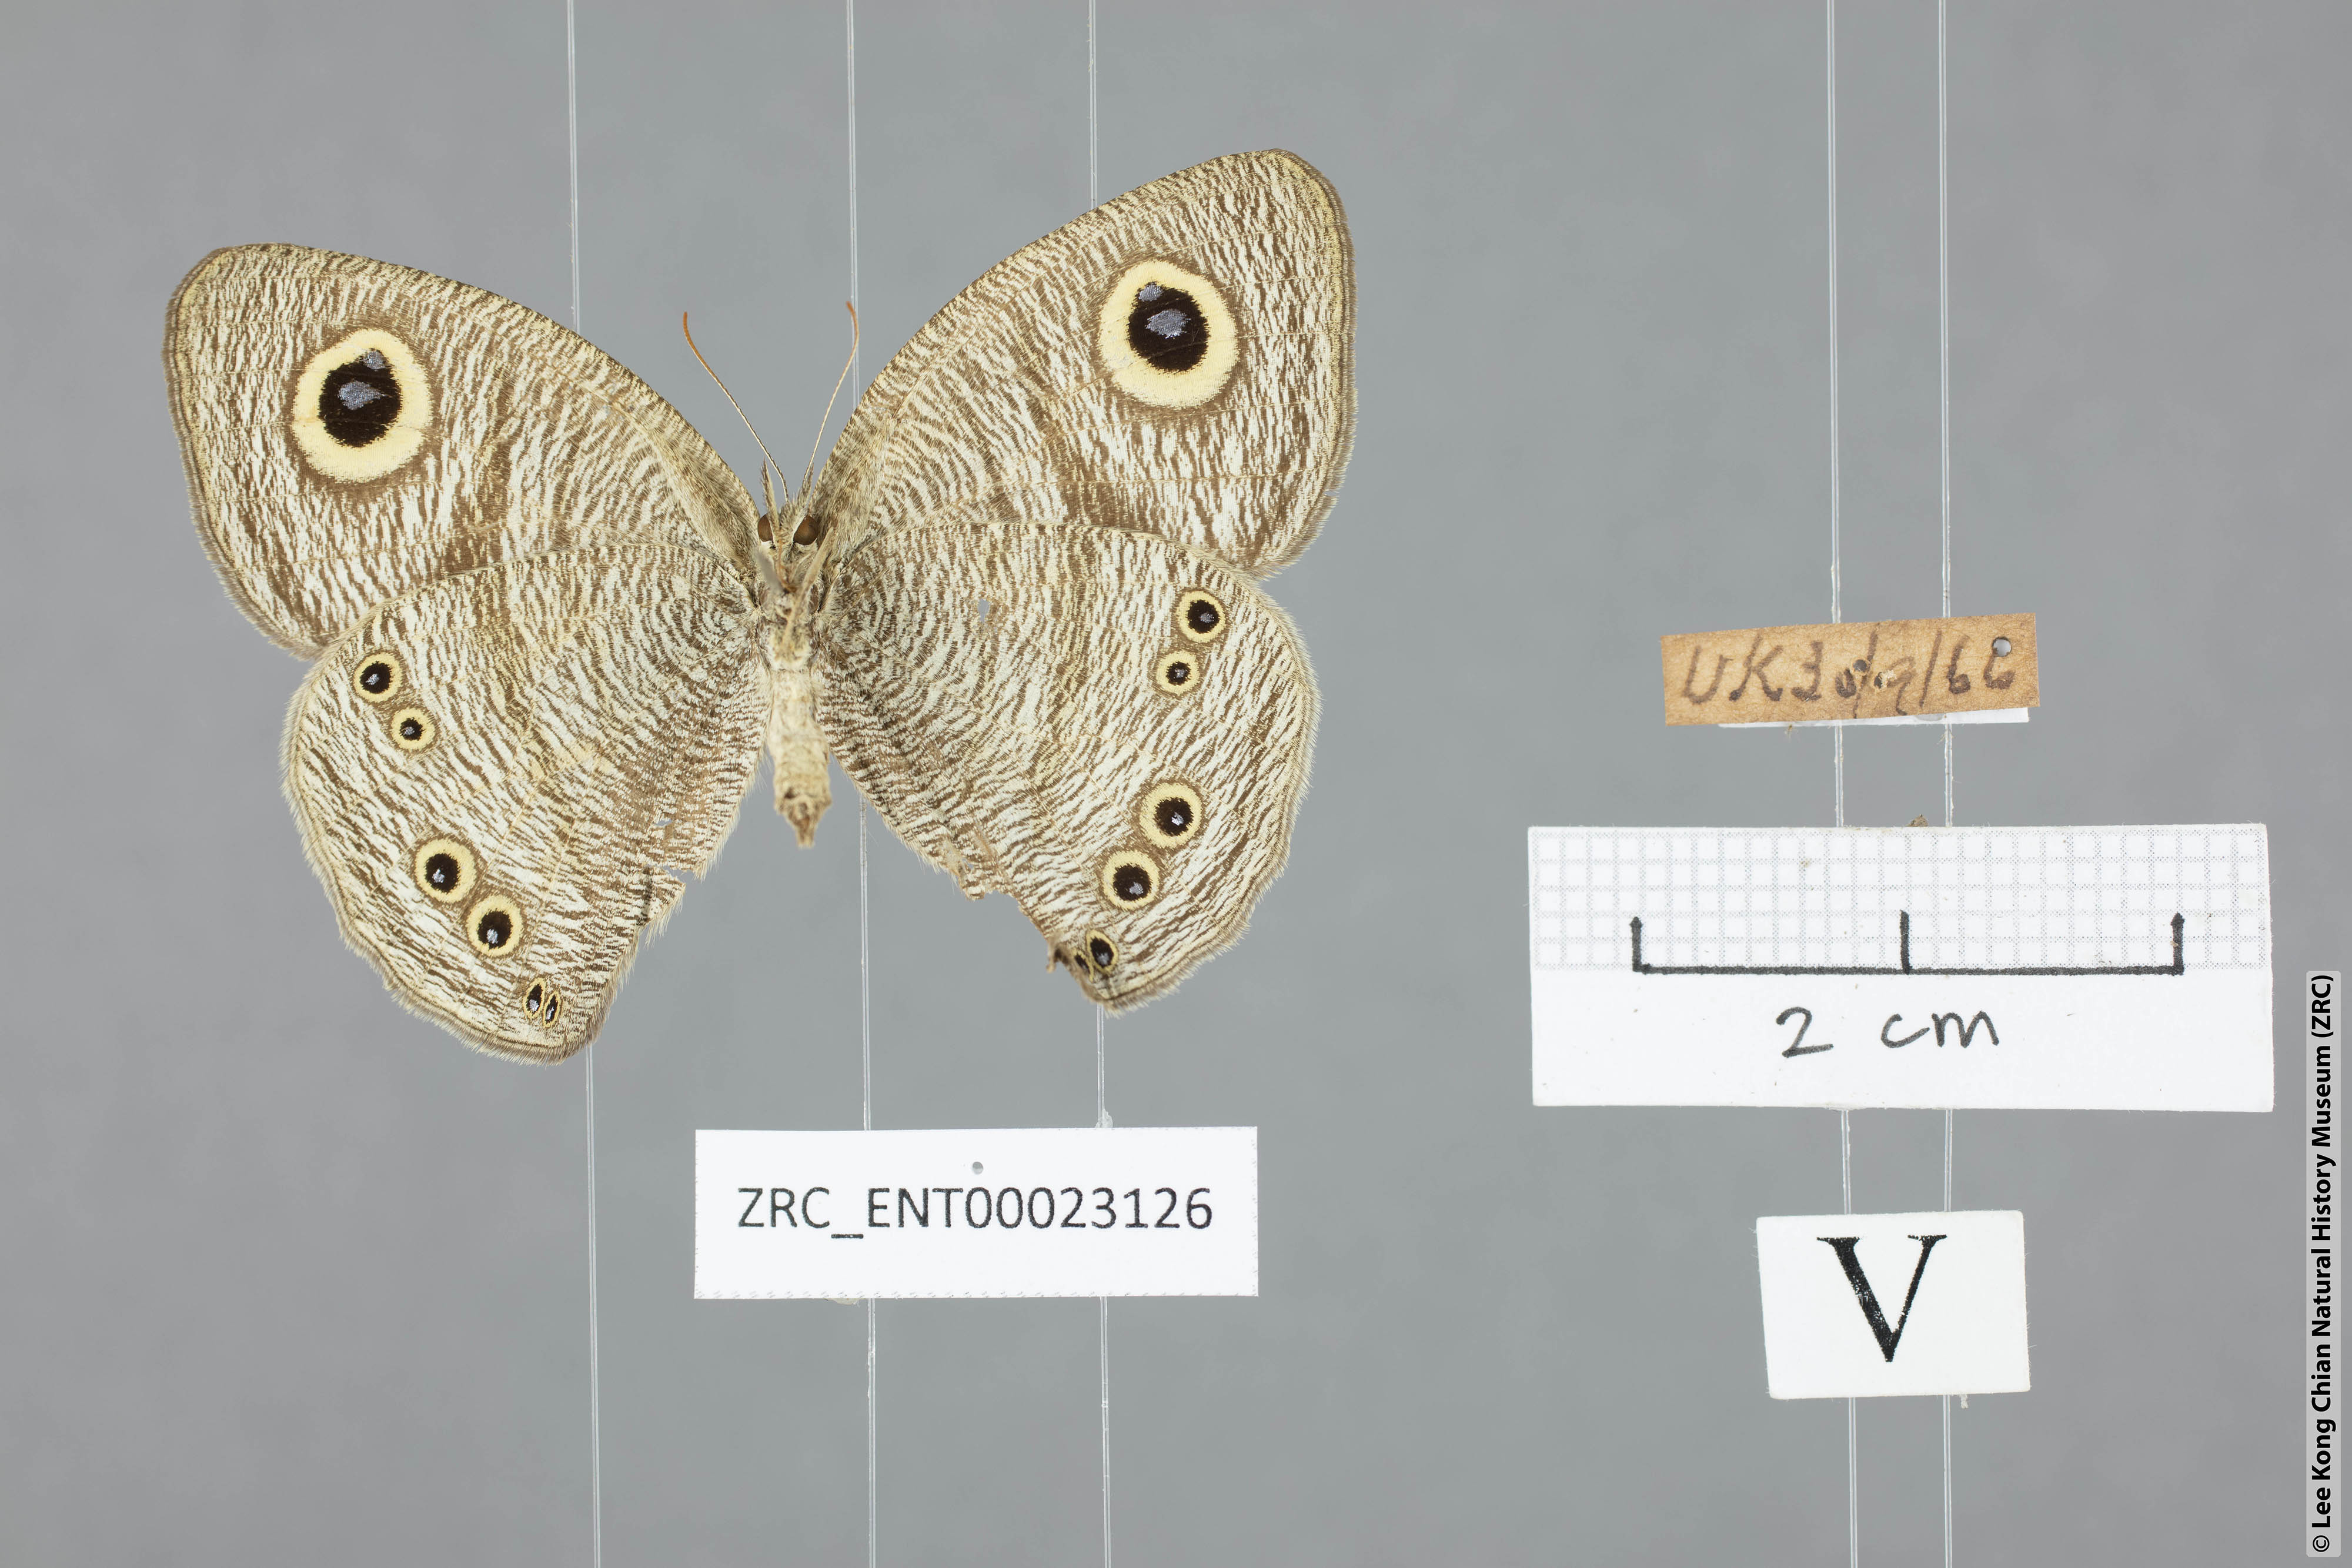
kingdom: Animalia
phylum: Arthropoda
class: Insecta
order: Lepidoptera
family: Nymphalidae
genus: Ypthima
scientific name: Ypthima savara
